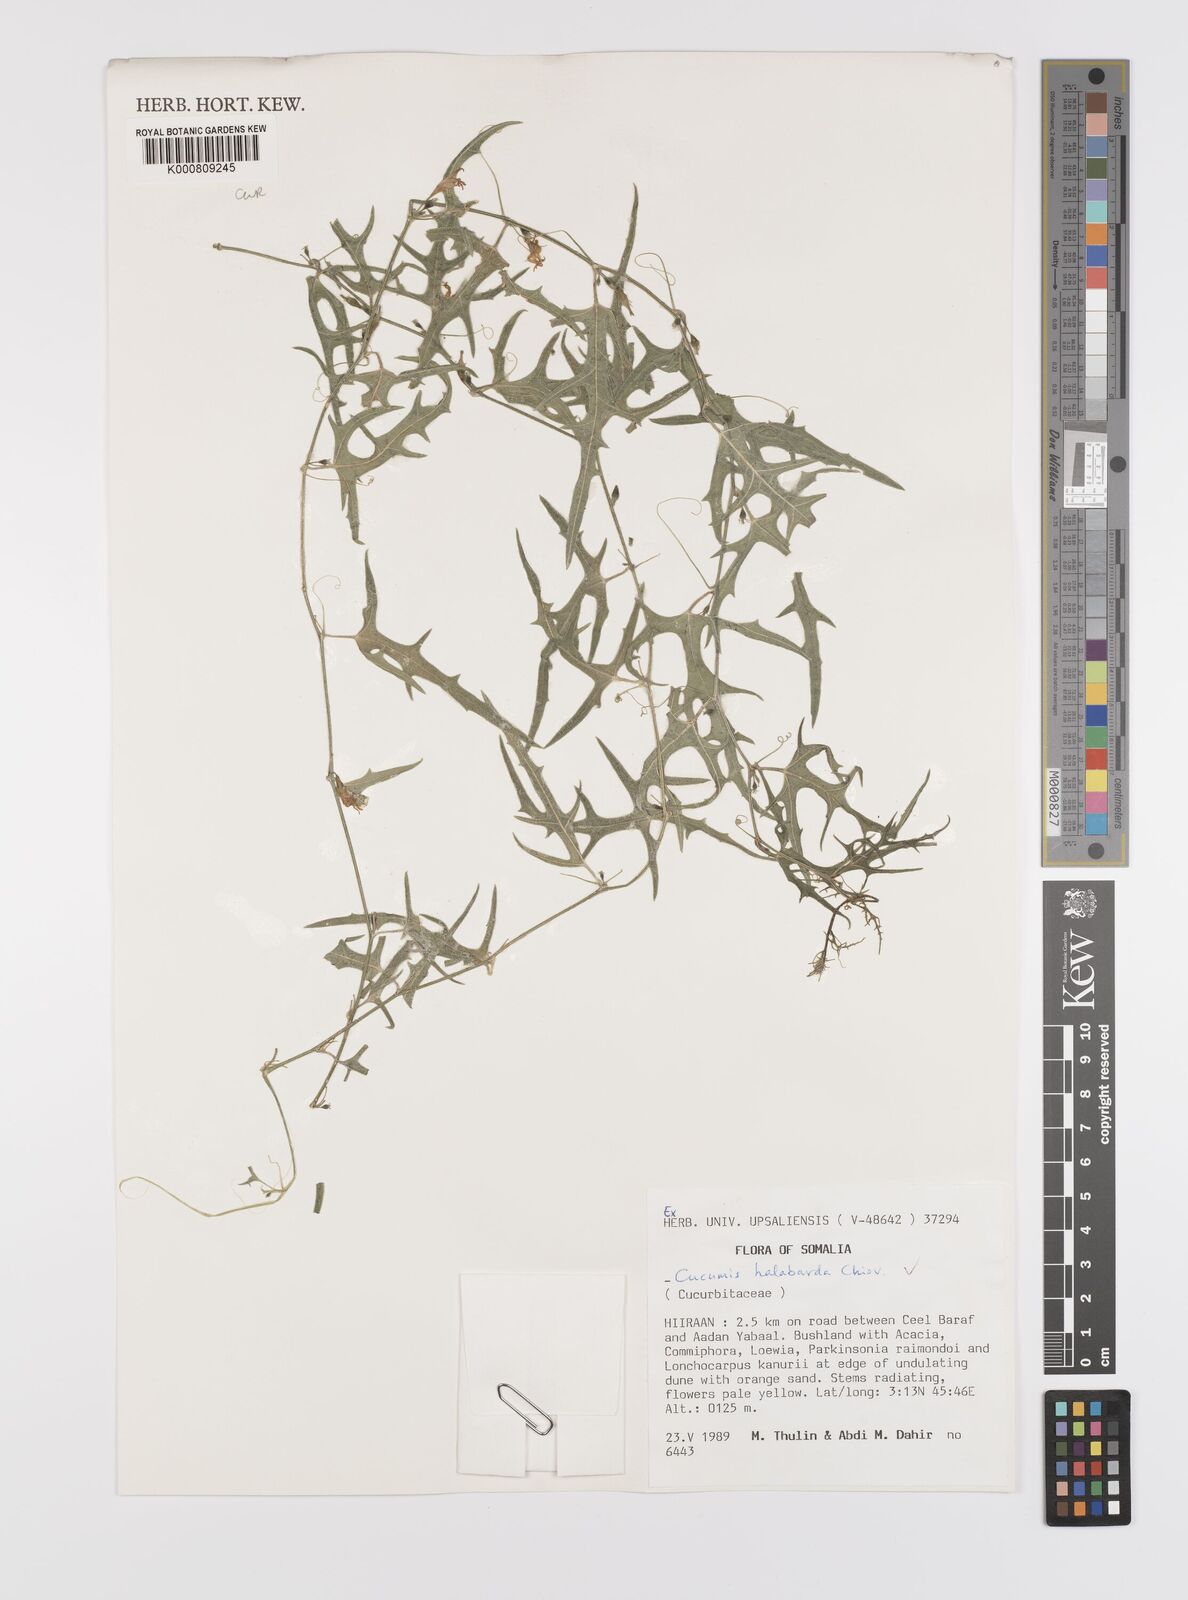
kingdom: Plantae
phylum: Tracheophyta
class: Magnoliopsida
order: Cucurbitales
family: Cucurbitaceae
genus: Cucumis
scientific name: Cucumis prophetarum
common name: Wild cucumber
